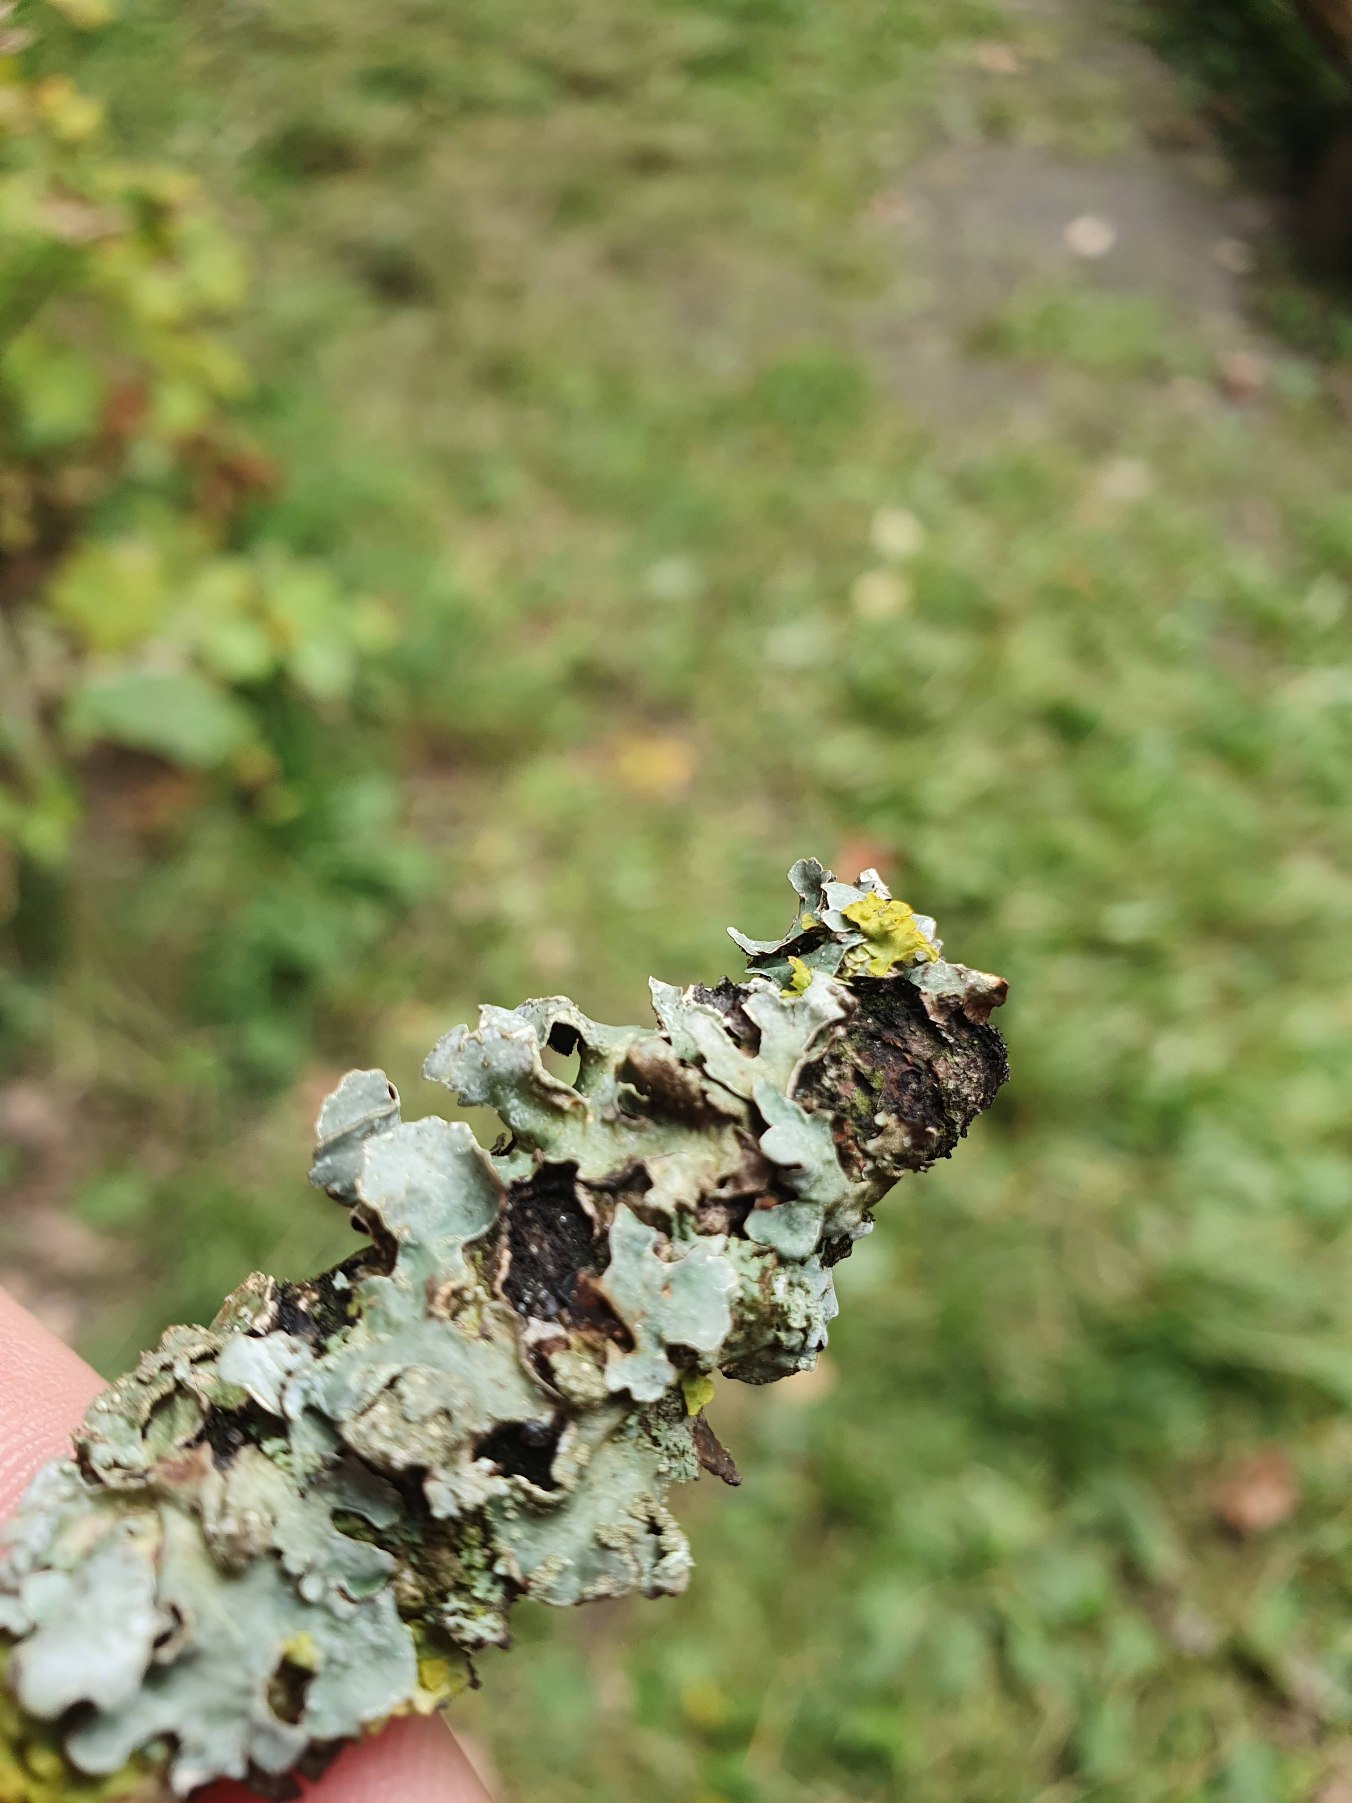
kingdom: Fungi
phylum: Ascomycota
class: Lecanoromycetes
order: Lecanorales
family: Parmeliaceae
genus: Parmelia
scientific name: Parmelia sulcata
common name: Rynket skållav
